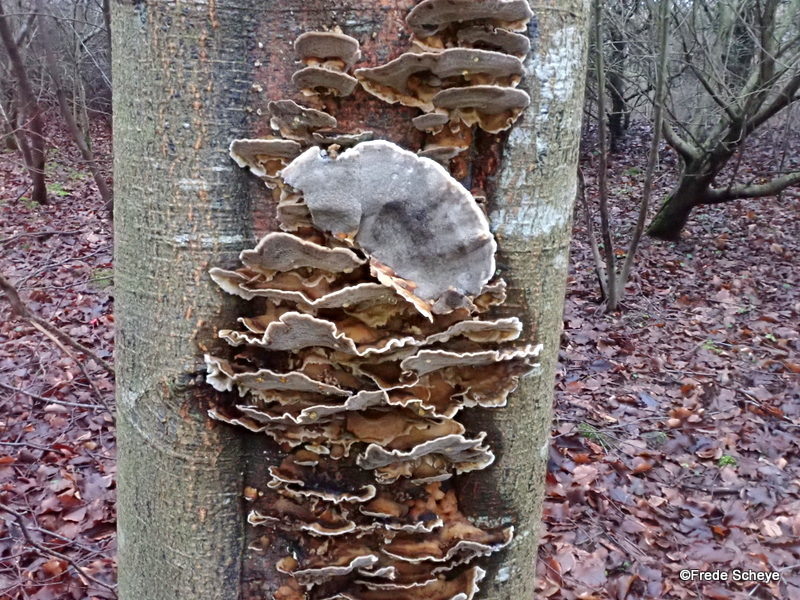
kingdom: Fungi
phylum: Basidiomycota
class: Agaricomycetes
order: Polyporales
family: Phanerochaetaceae
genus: Bjerkandera
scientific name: Bjerkandera adusta
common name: sveden sodporesvamp
